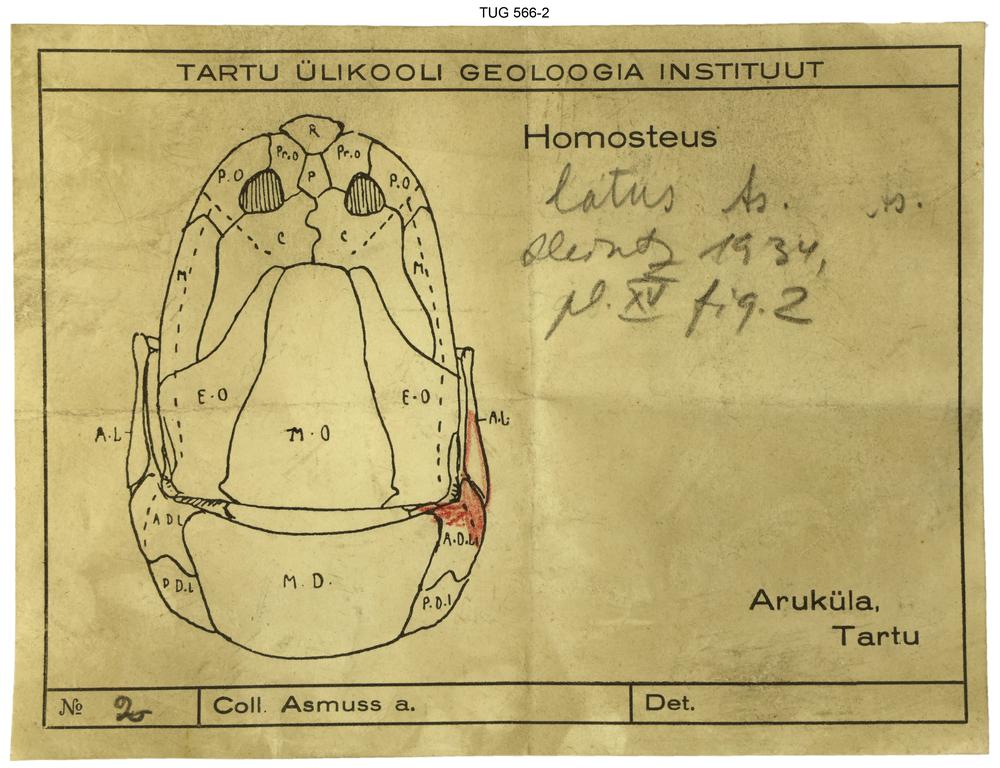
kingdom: Animalia
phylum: Chordata
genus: Homosteus
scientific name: Homosteus latus
